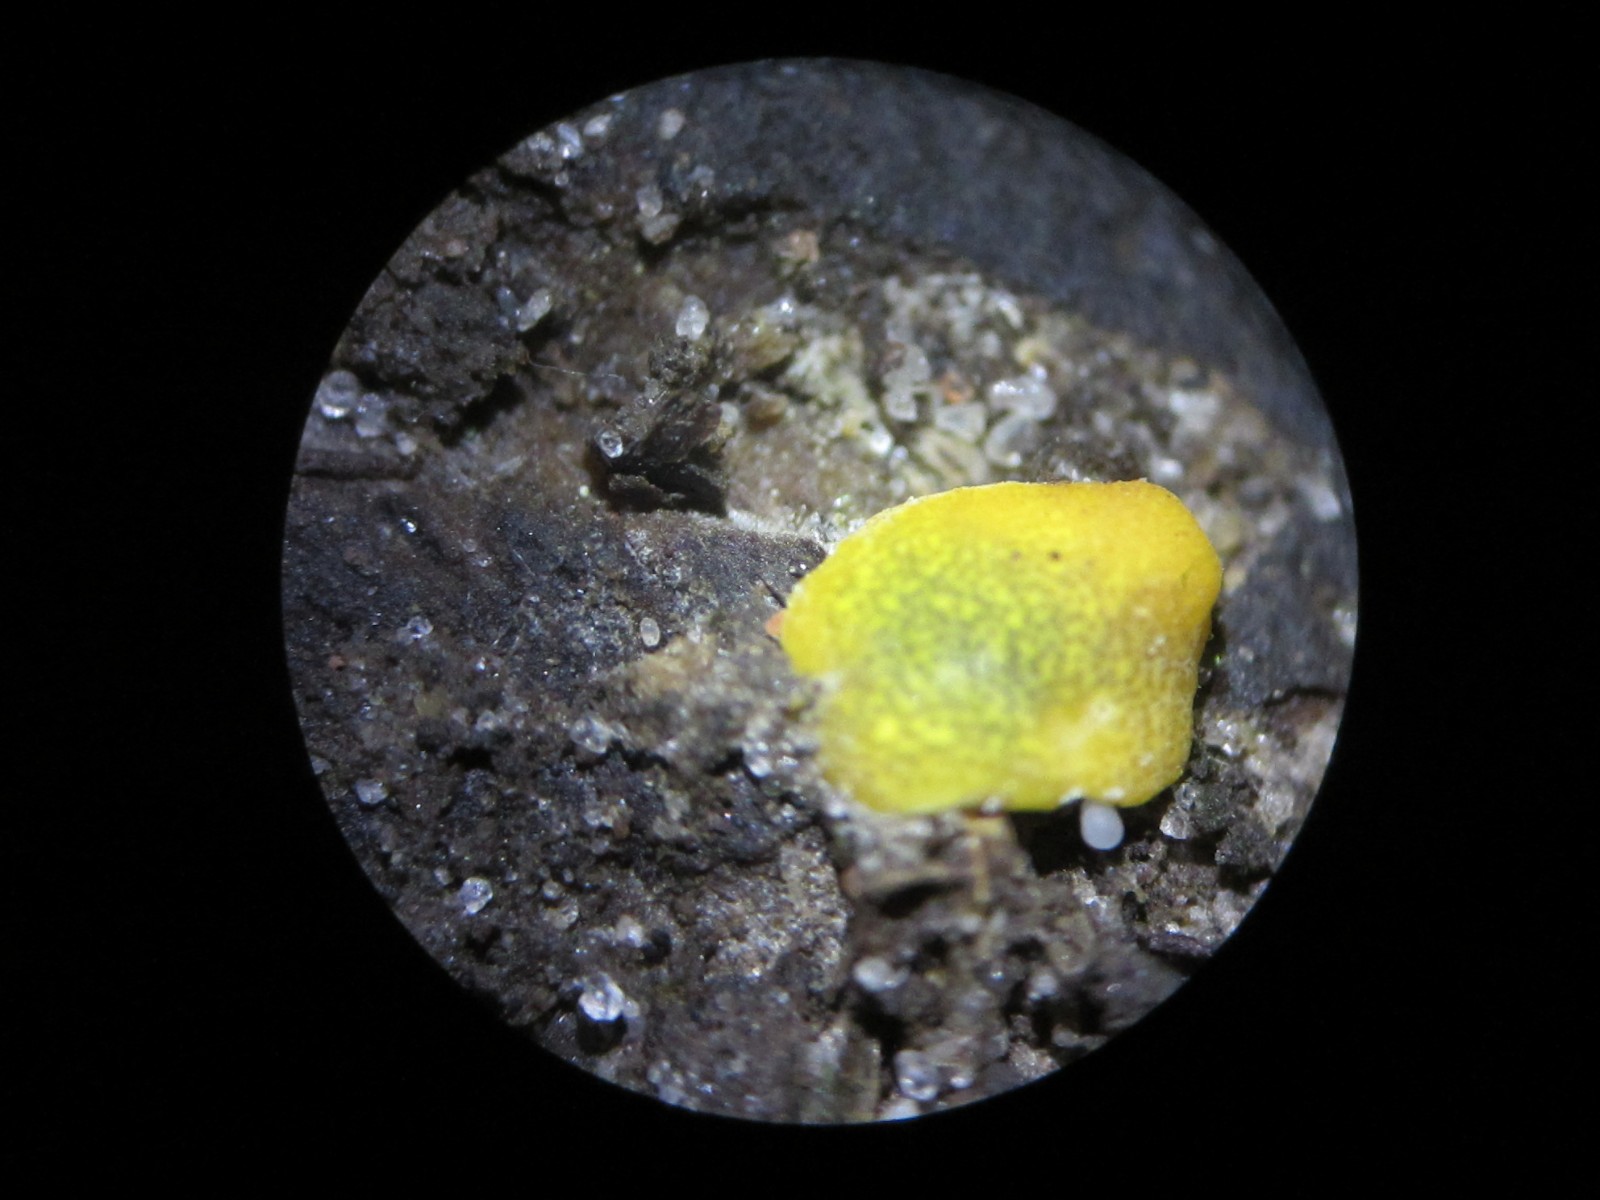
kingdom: Fungi
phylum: Ascomycota
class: Sordariomycetes
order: Hypocreales
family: Hypocreaceae
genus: Trichoderma
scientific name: Trichoderma aureoviride
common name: æggegul kødkerne
